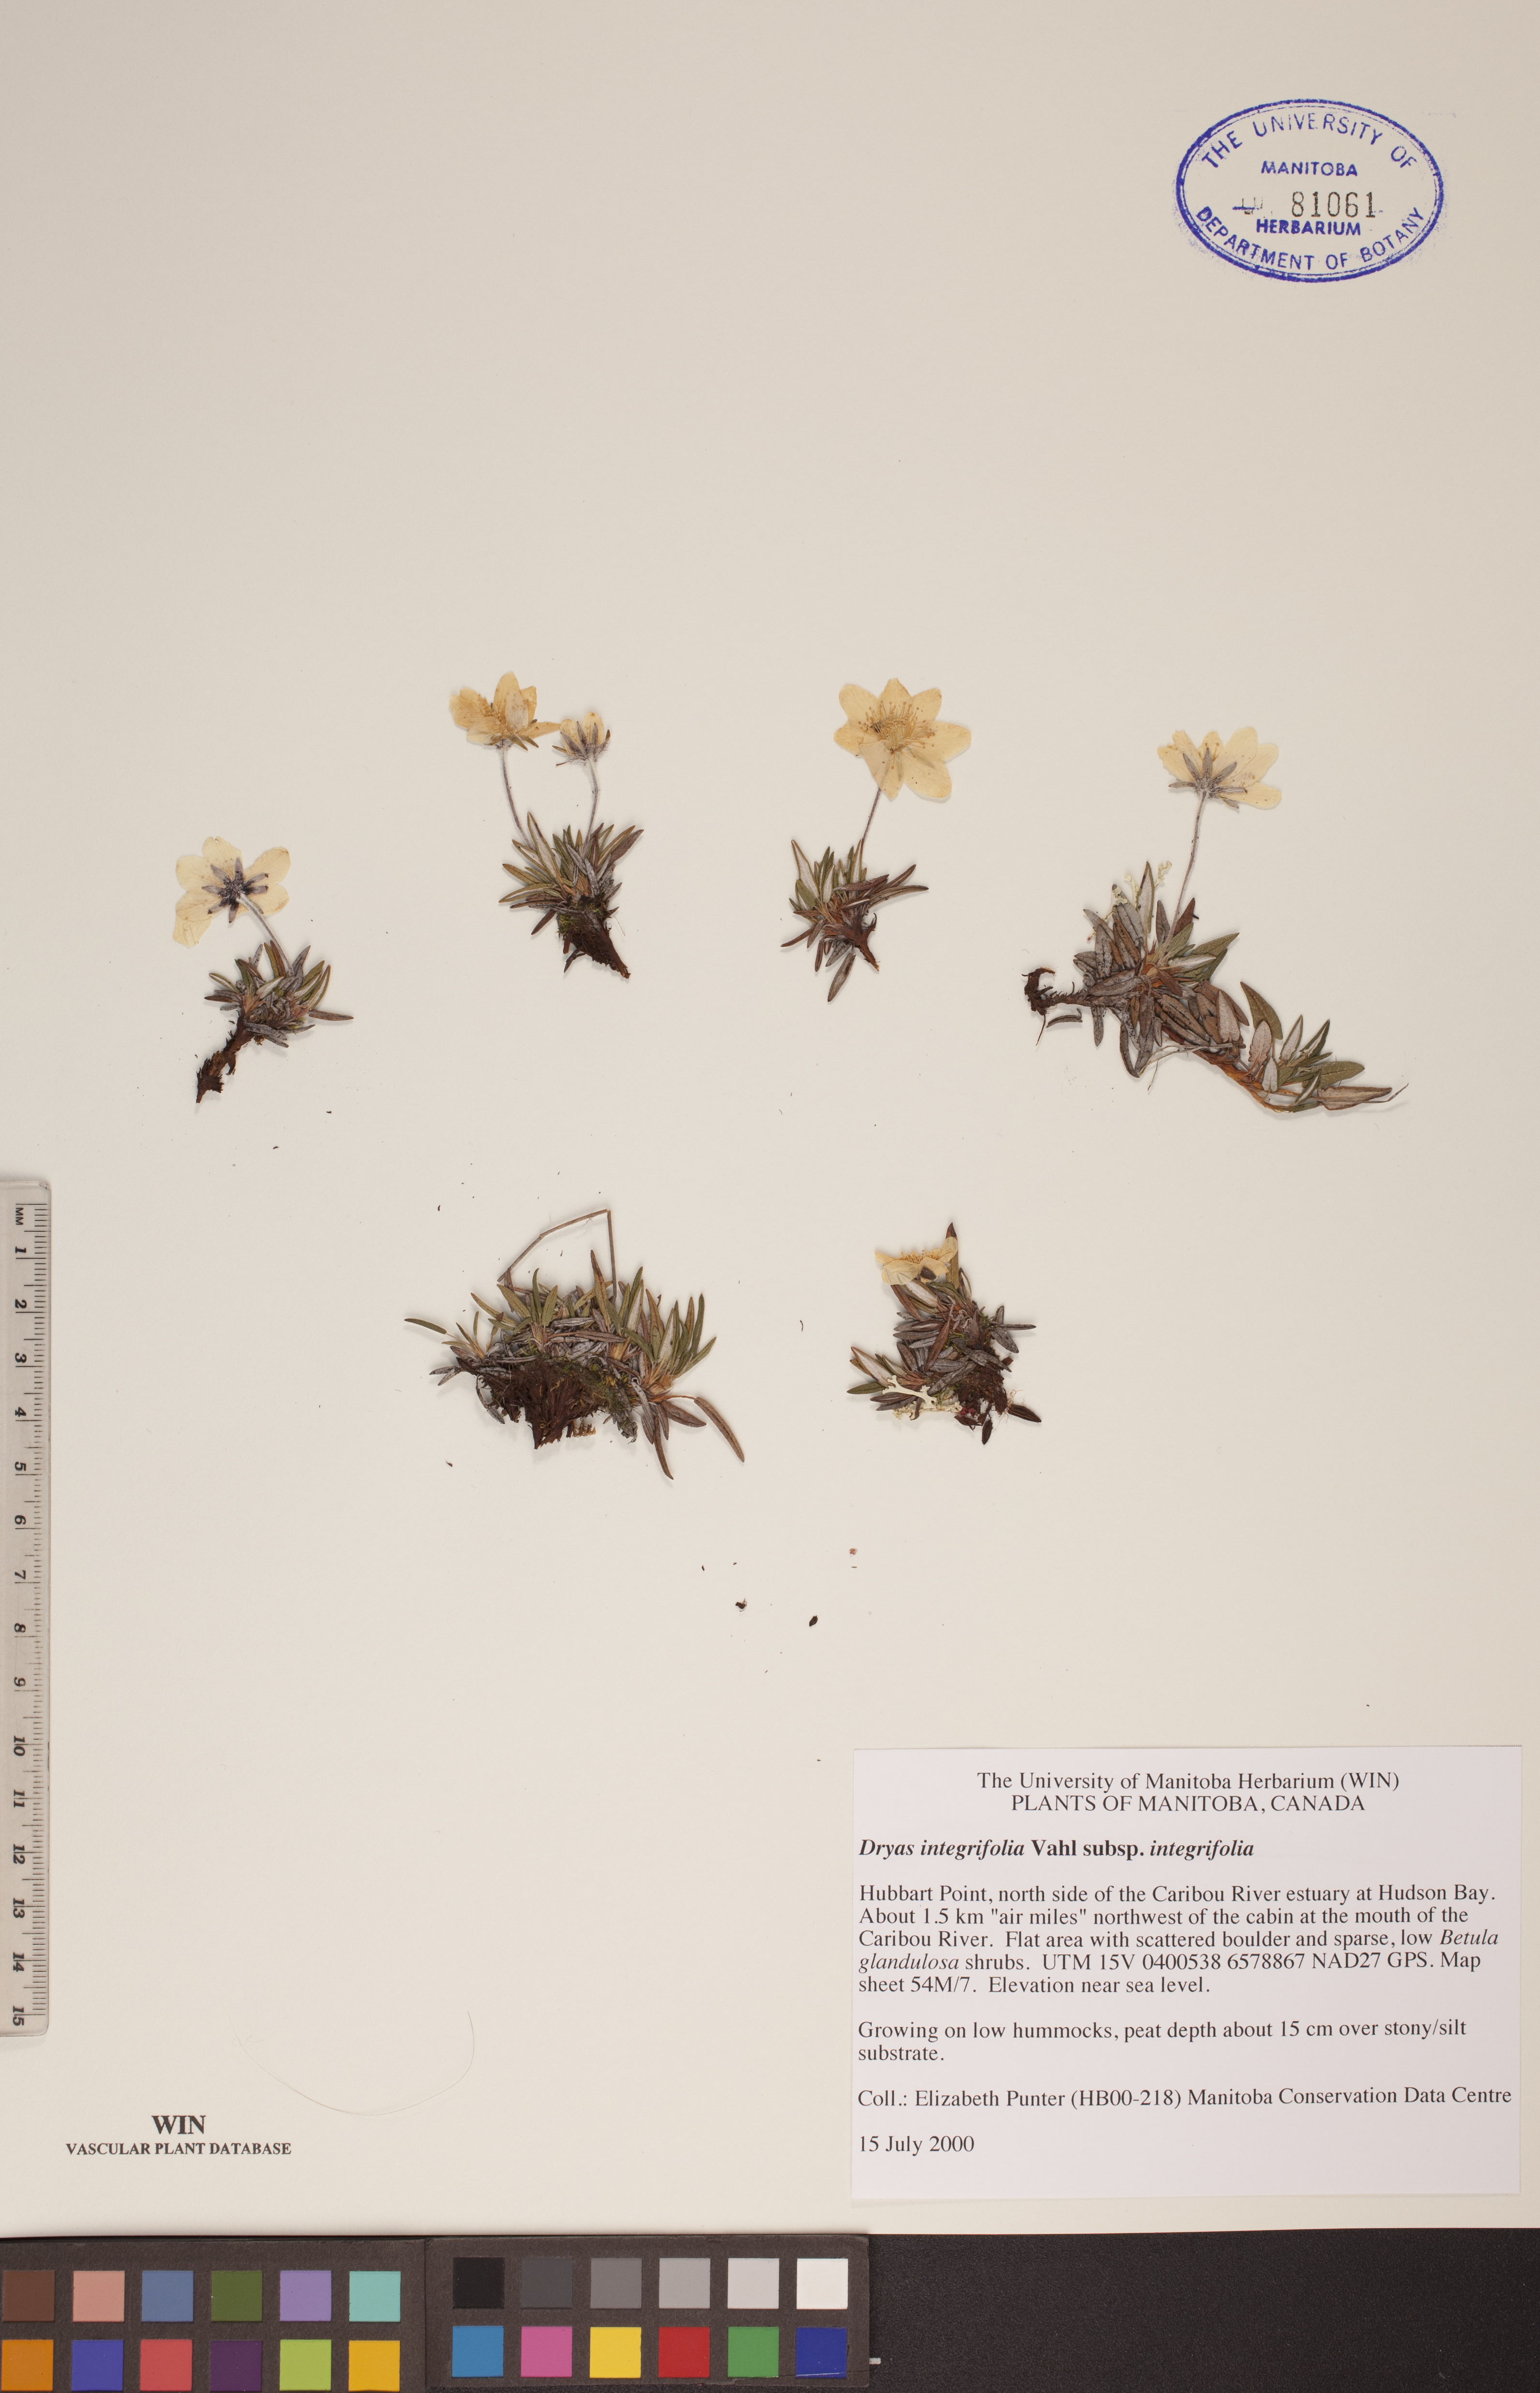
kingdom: Plantae
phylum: Tracheophyta
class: Magnoliopsida
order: Rosales
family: Rosaceae
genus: Dryas
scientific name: Dryas integrifolia
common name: Entire-leaved mountain avens
